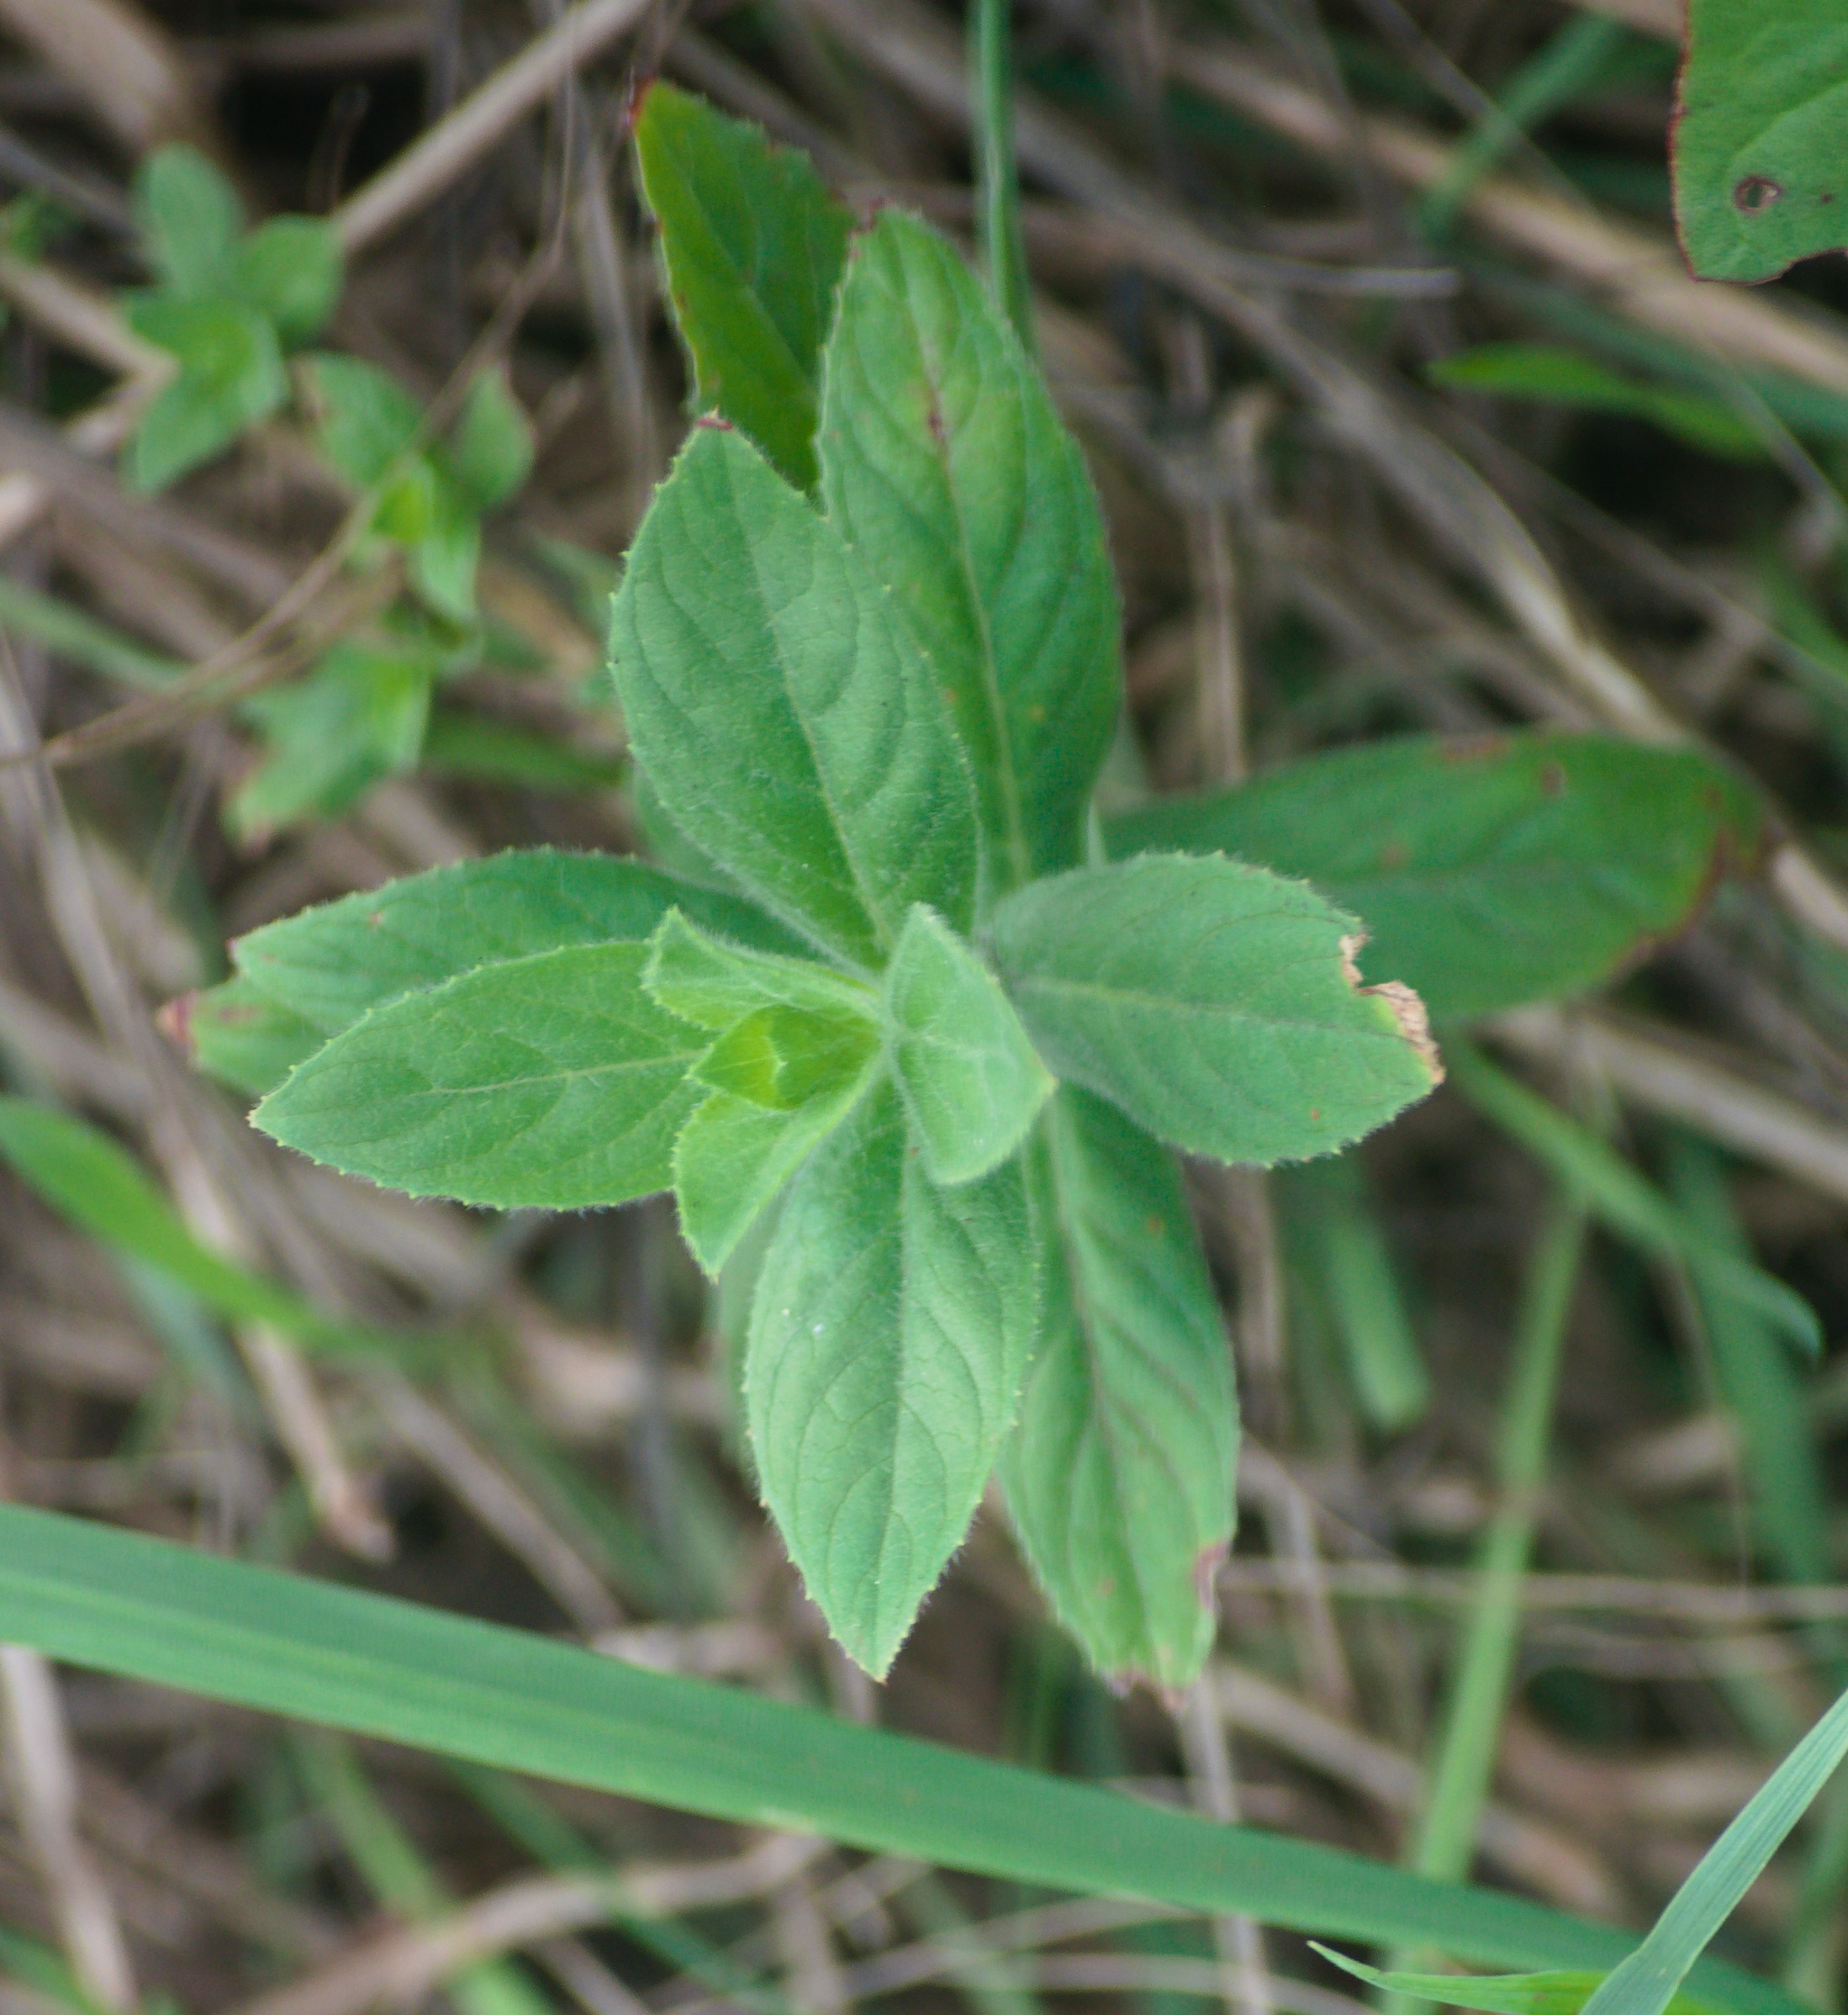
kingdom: Plantae
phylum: Tracheophyta
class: Magnoliopsida
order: Myrtales
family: Onagraceae
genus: Epilobium
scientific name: Epilobium hirsutum
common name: Lådden dueurt
